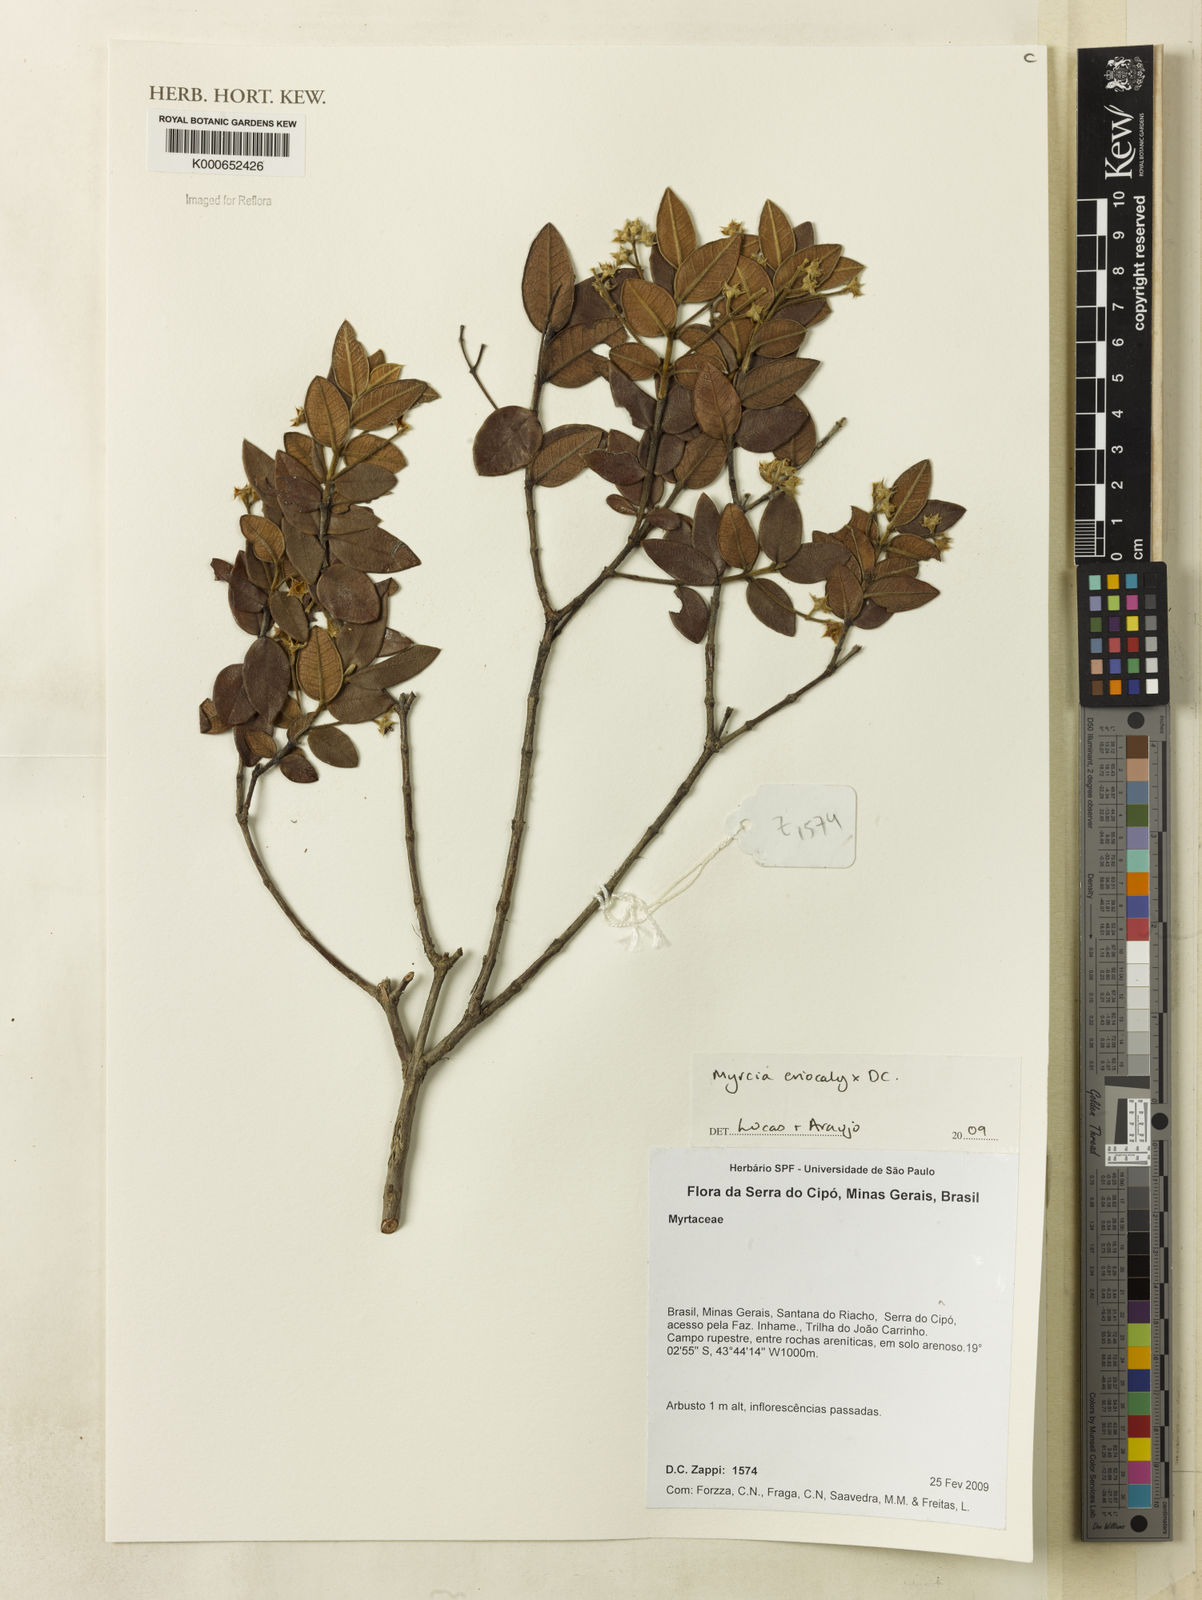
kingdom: Plantae
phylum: Tracheophyta
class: Magnoliopsida
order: Myrtales
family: Myrtaceae
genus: Myrcia
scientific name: Myrcia eriocalyx
